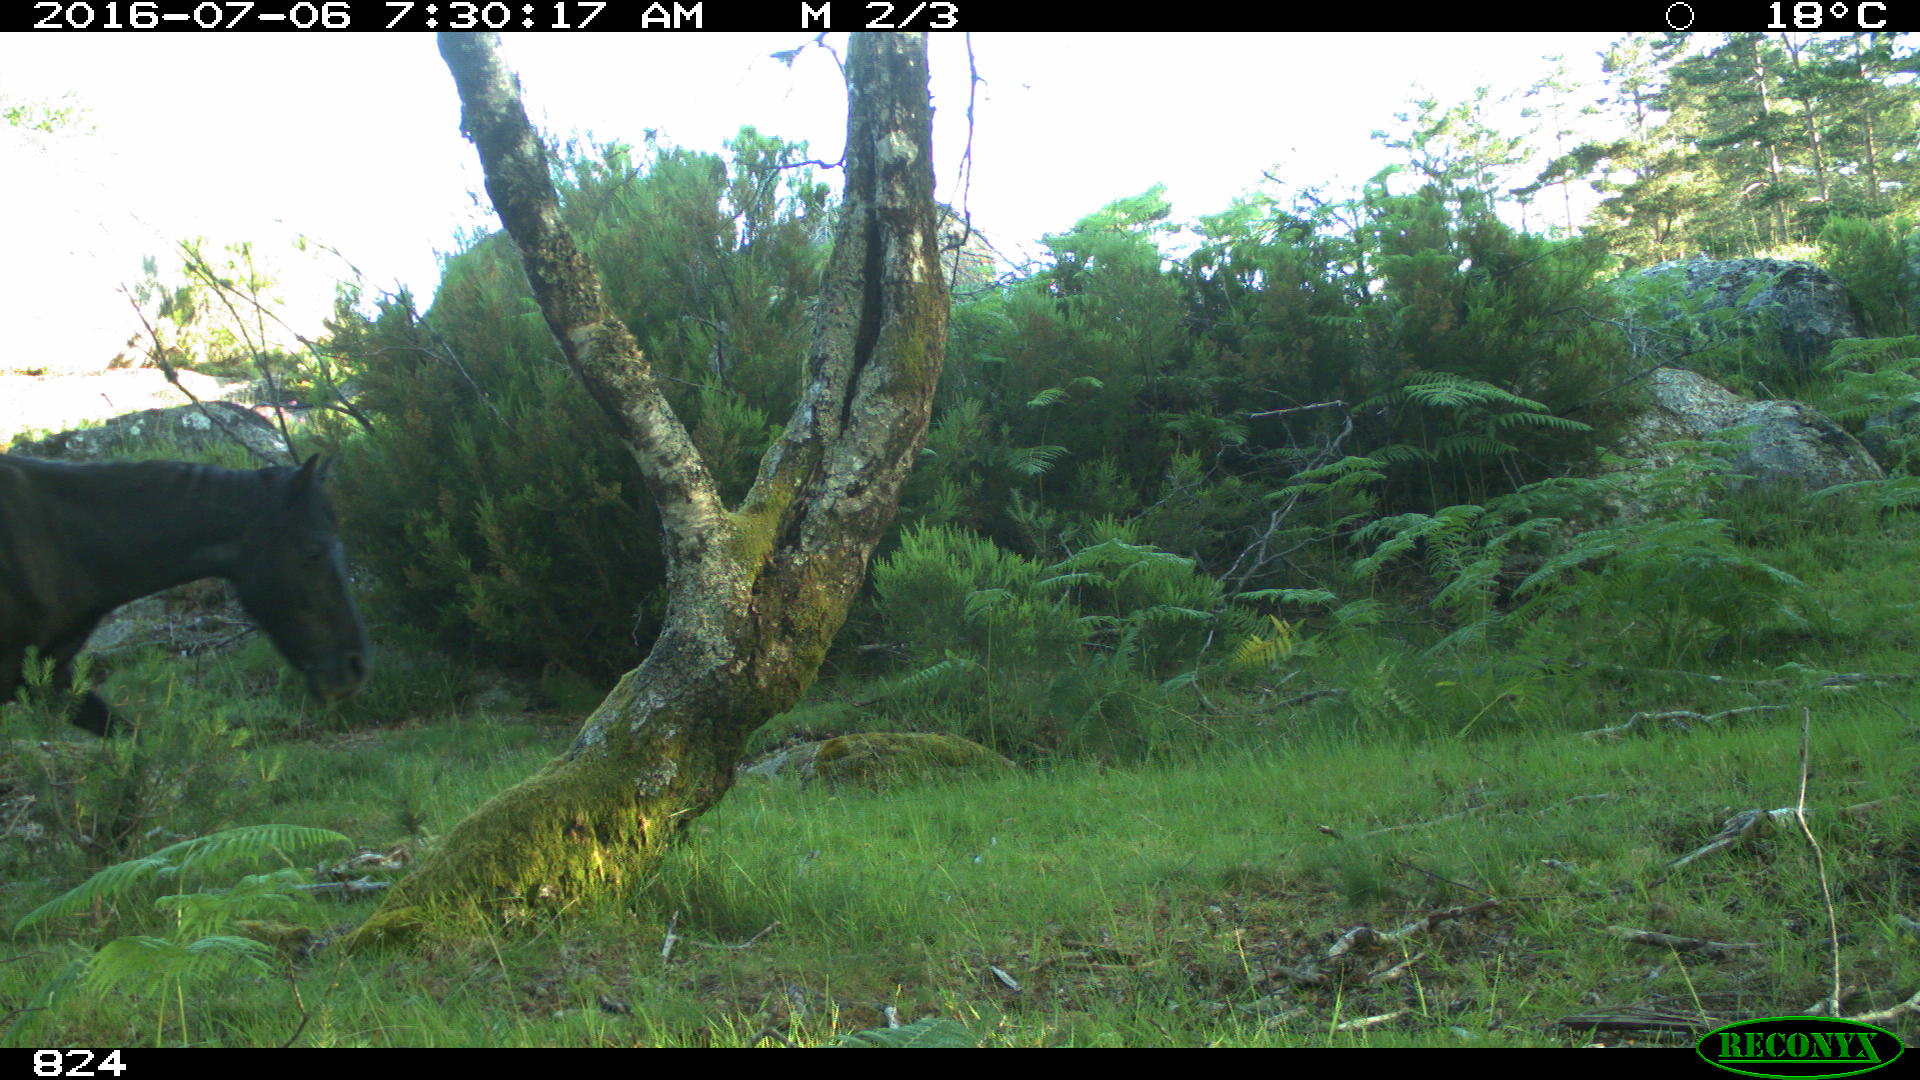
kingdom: Animalia
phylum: Chordata
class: Mammalia
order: Perissodactyla
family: Equidae
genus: Equus
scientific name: Equus caballus
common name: Horse
